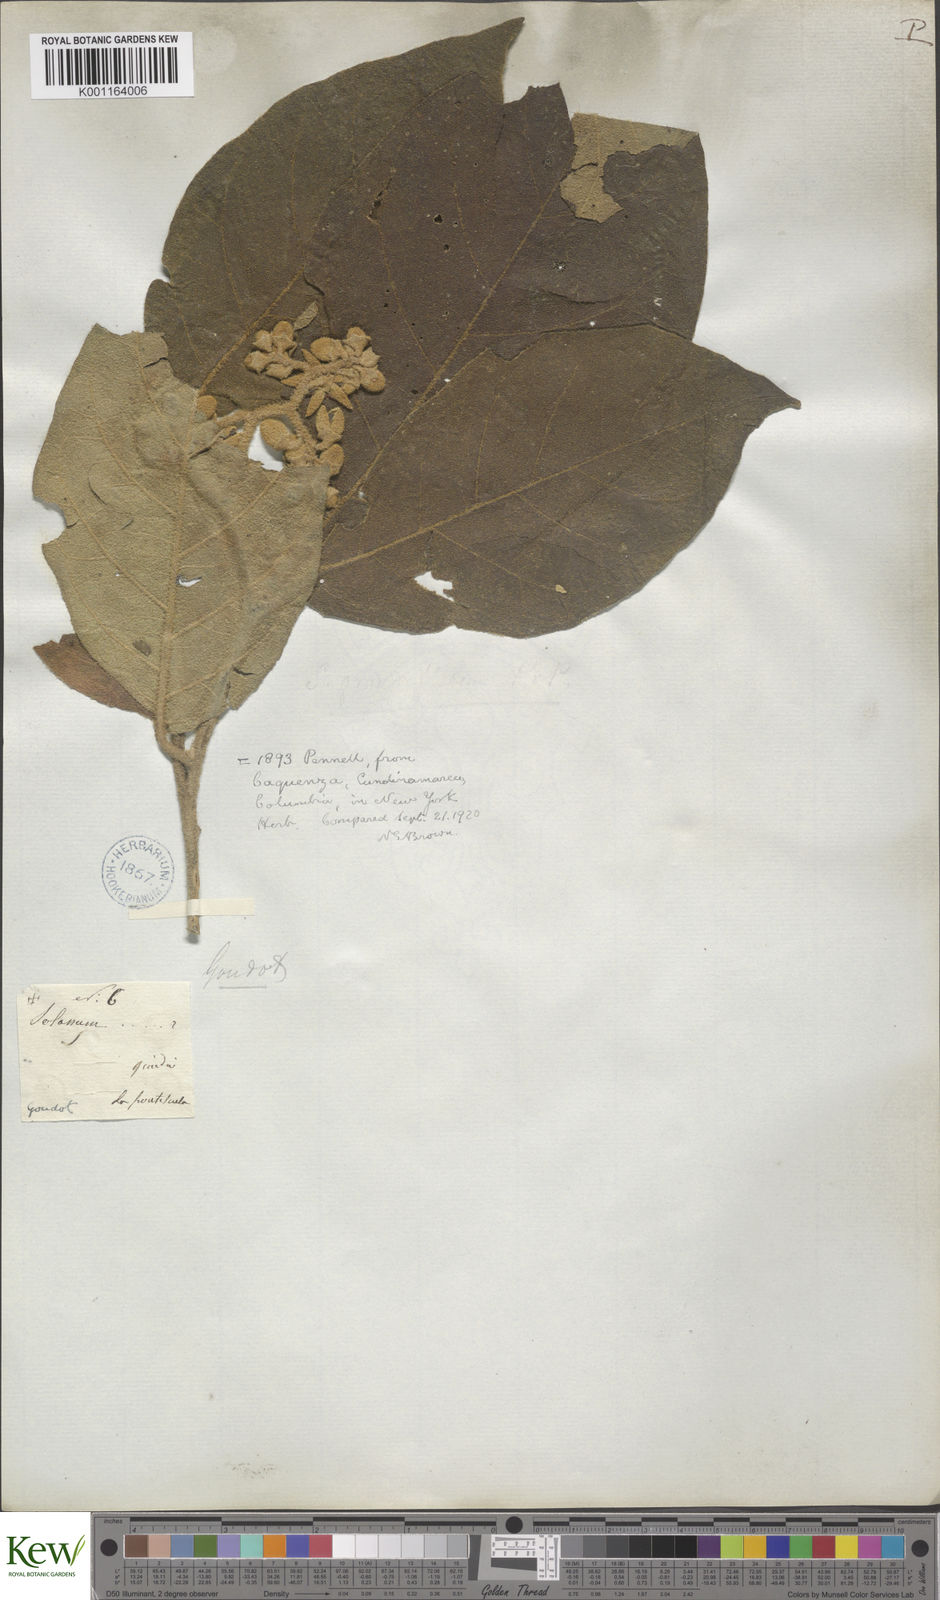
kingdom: Plantae
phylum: Tracheophyta
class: Magnoliopsida
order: Solanales
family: Solanaceae
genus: Solanum
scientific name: Solanum grandiflorum
